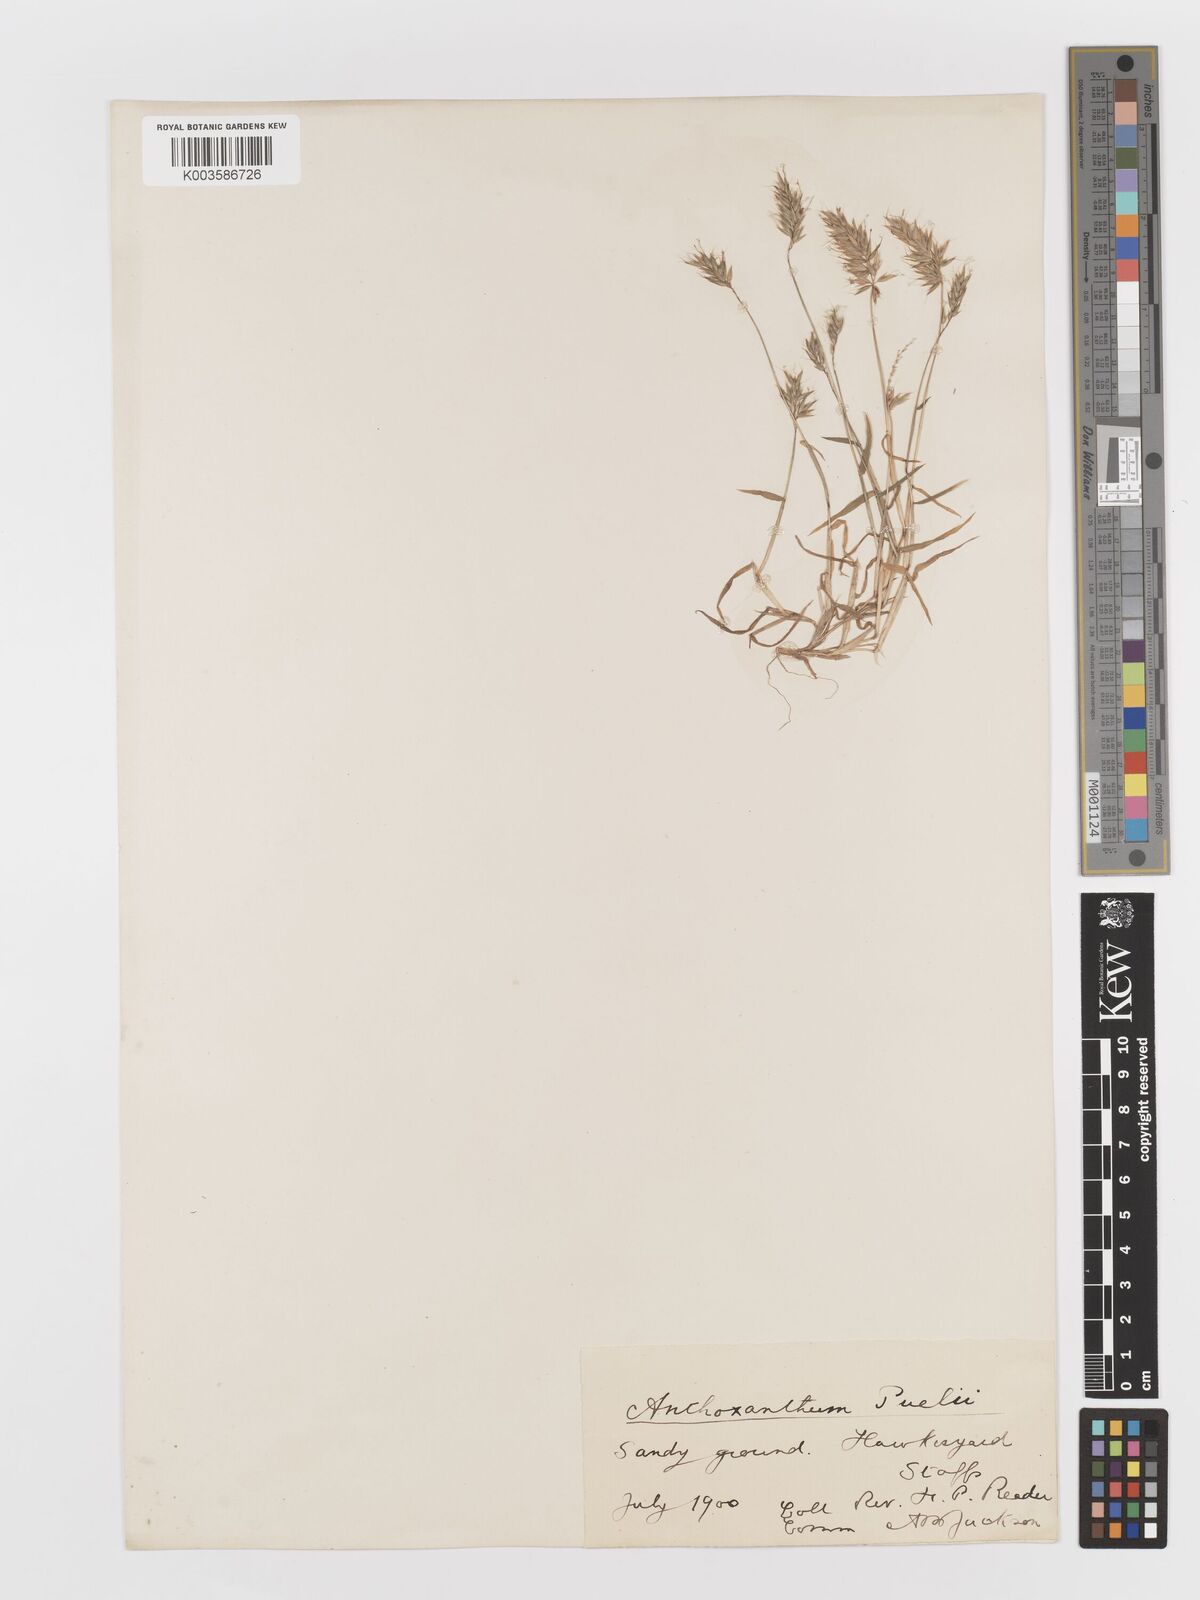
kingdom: Plantae
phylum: Tracheophyta
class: Liliopsida
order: Poales
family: Poaceae
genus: Anthoxanthum
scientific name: Anthoxanthum aristatum
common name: Annual vernal-grass
